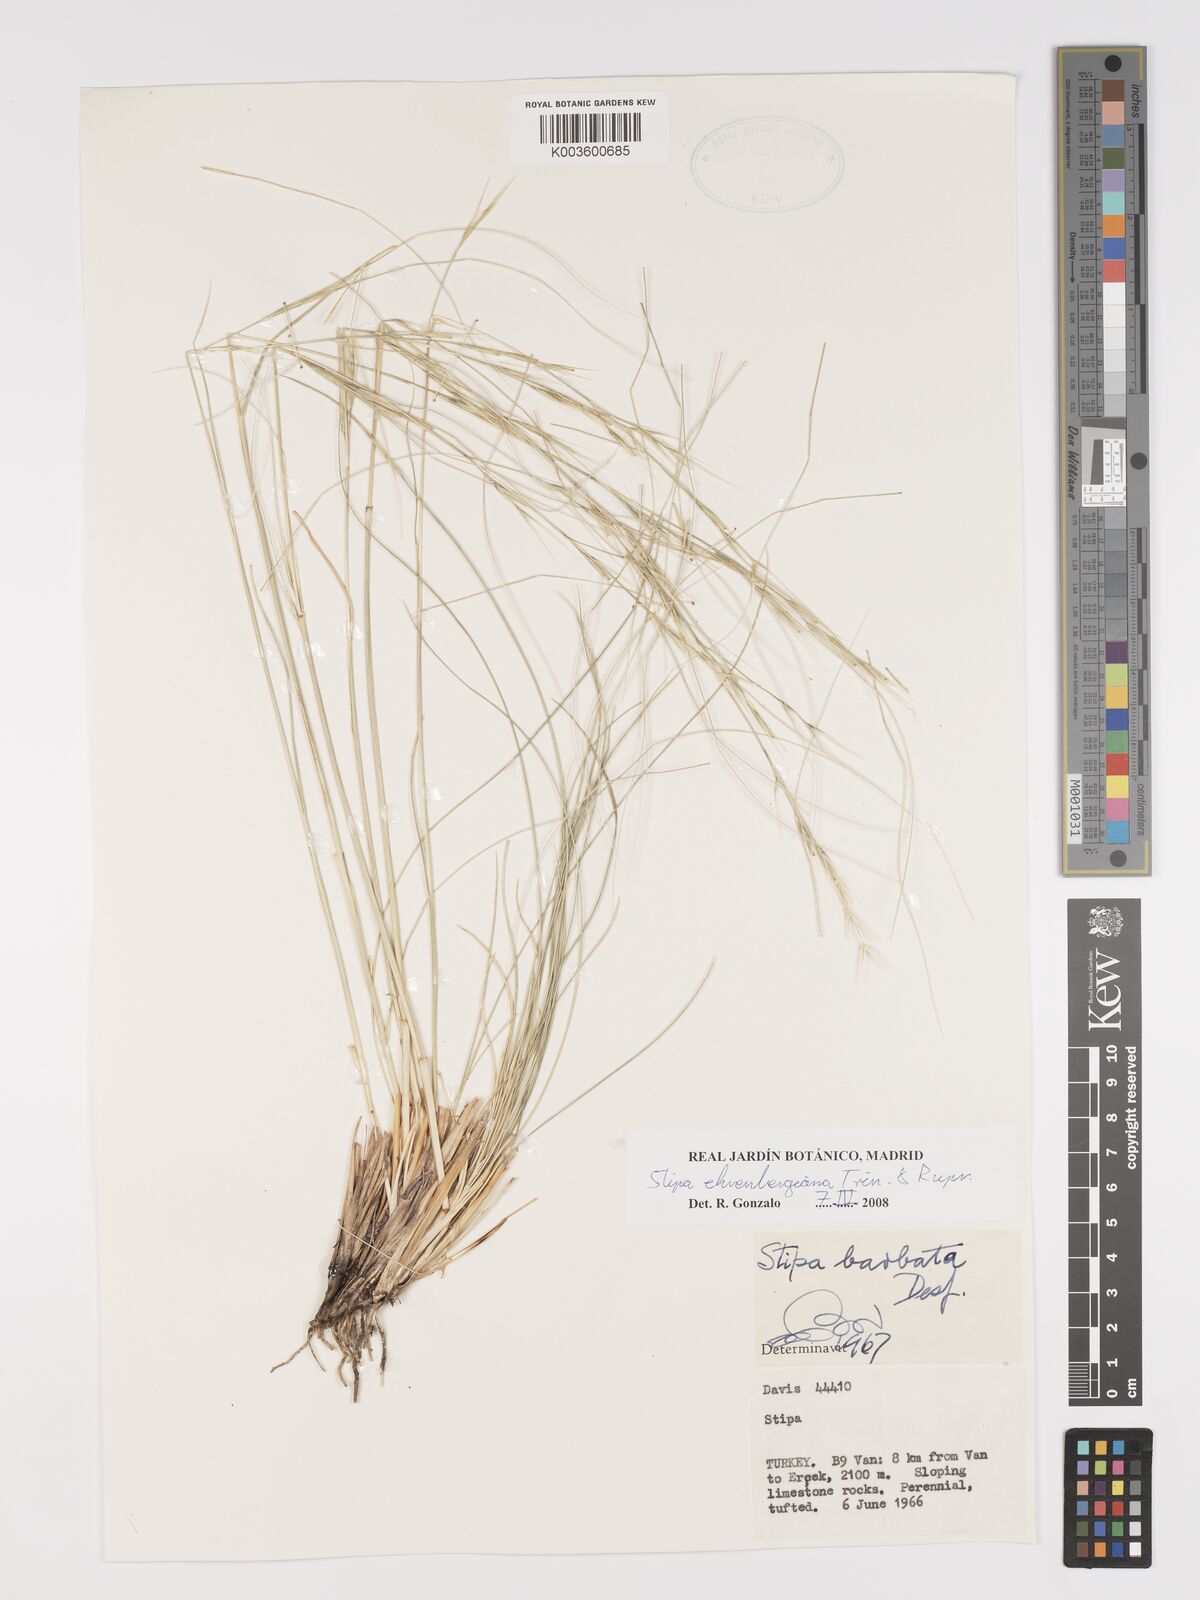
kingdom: Plantae
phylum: Tracheophyta
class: Liliopsida
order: Poales
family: Poaceae
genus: Stipa
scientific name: Stipa ehrenbergiana
